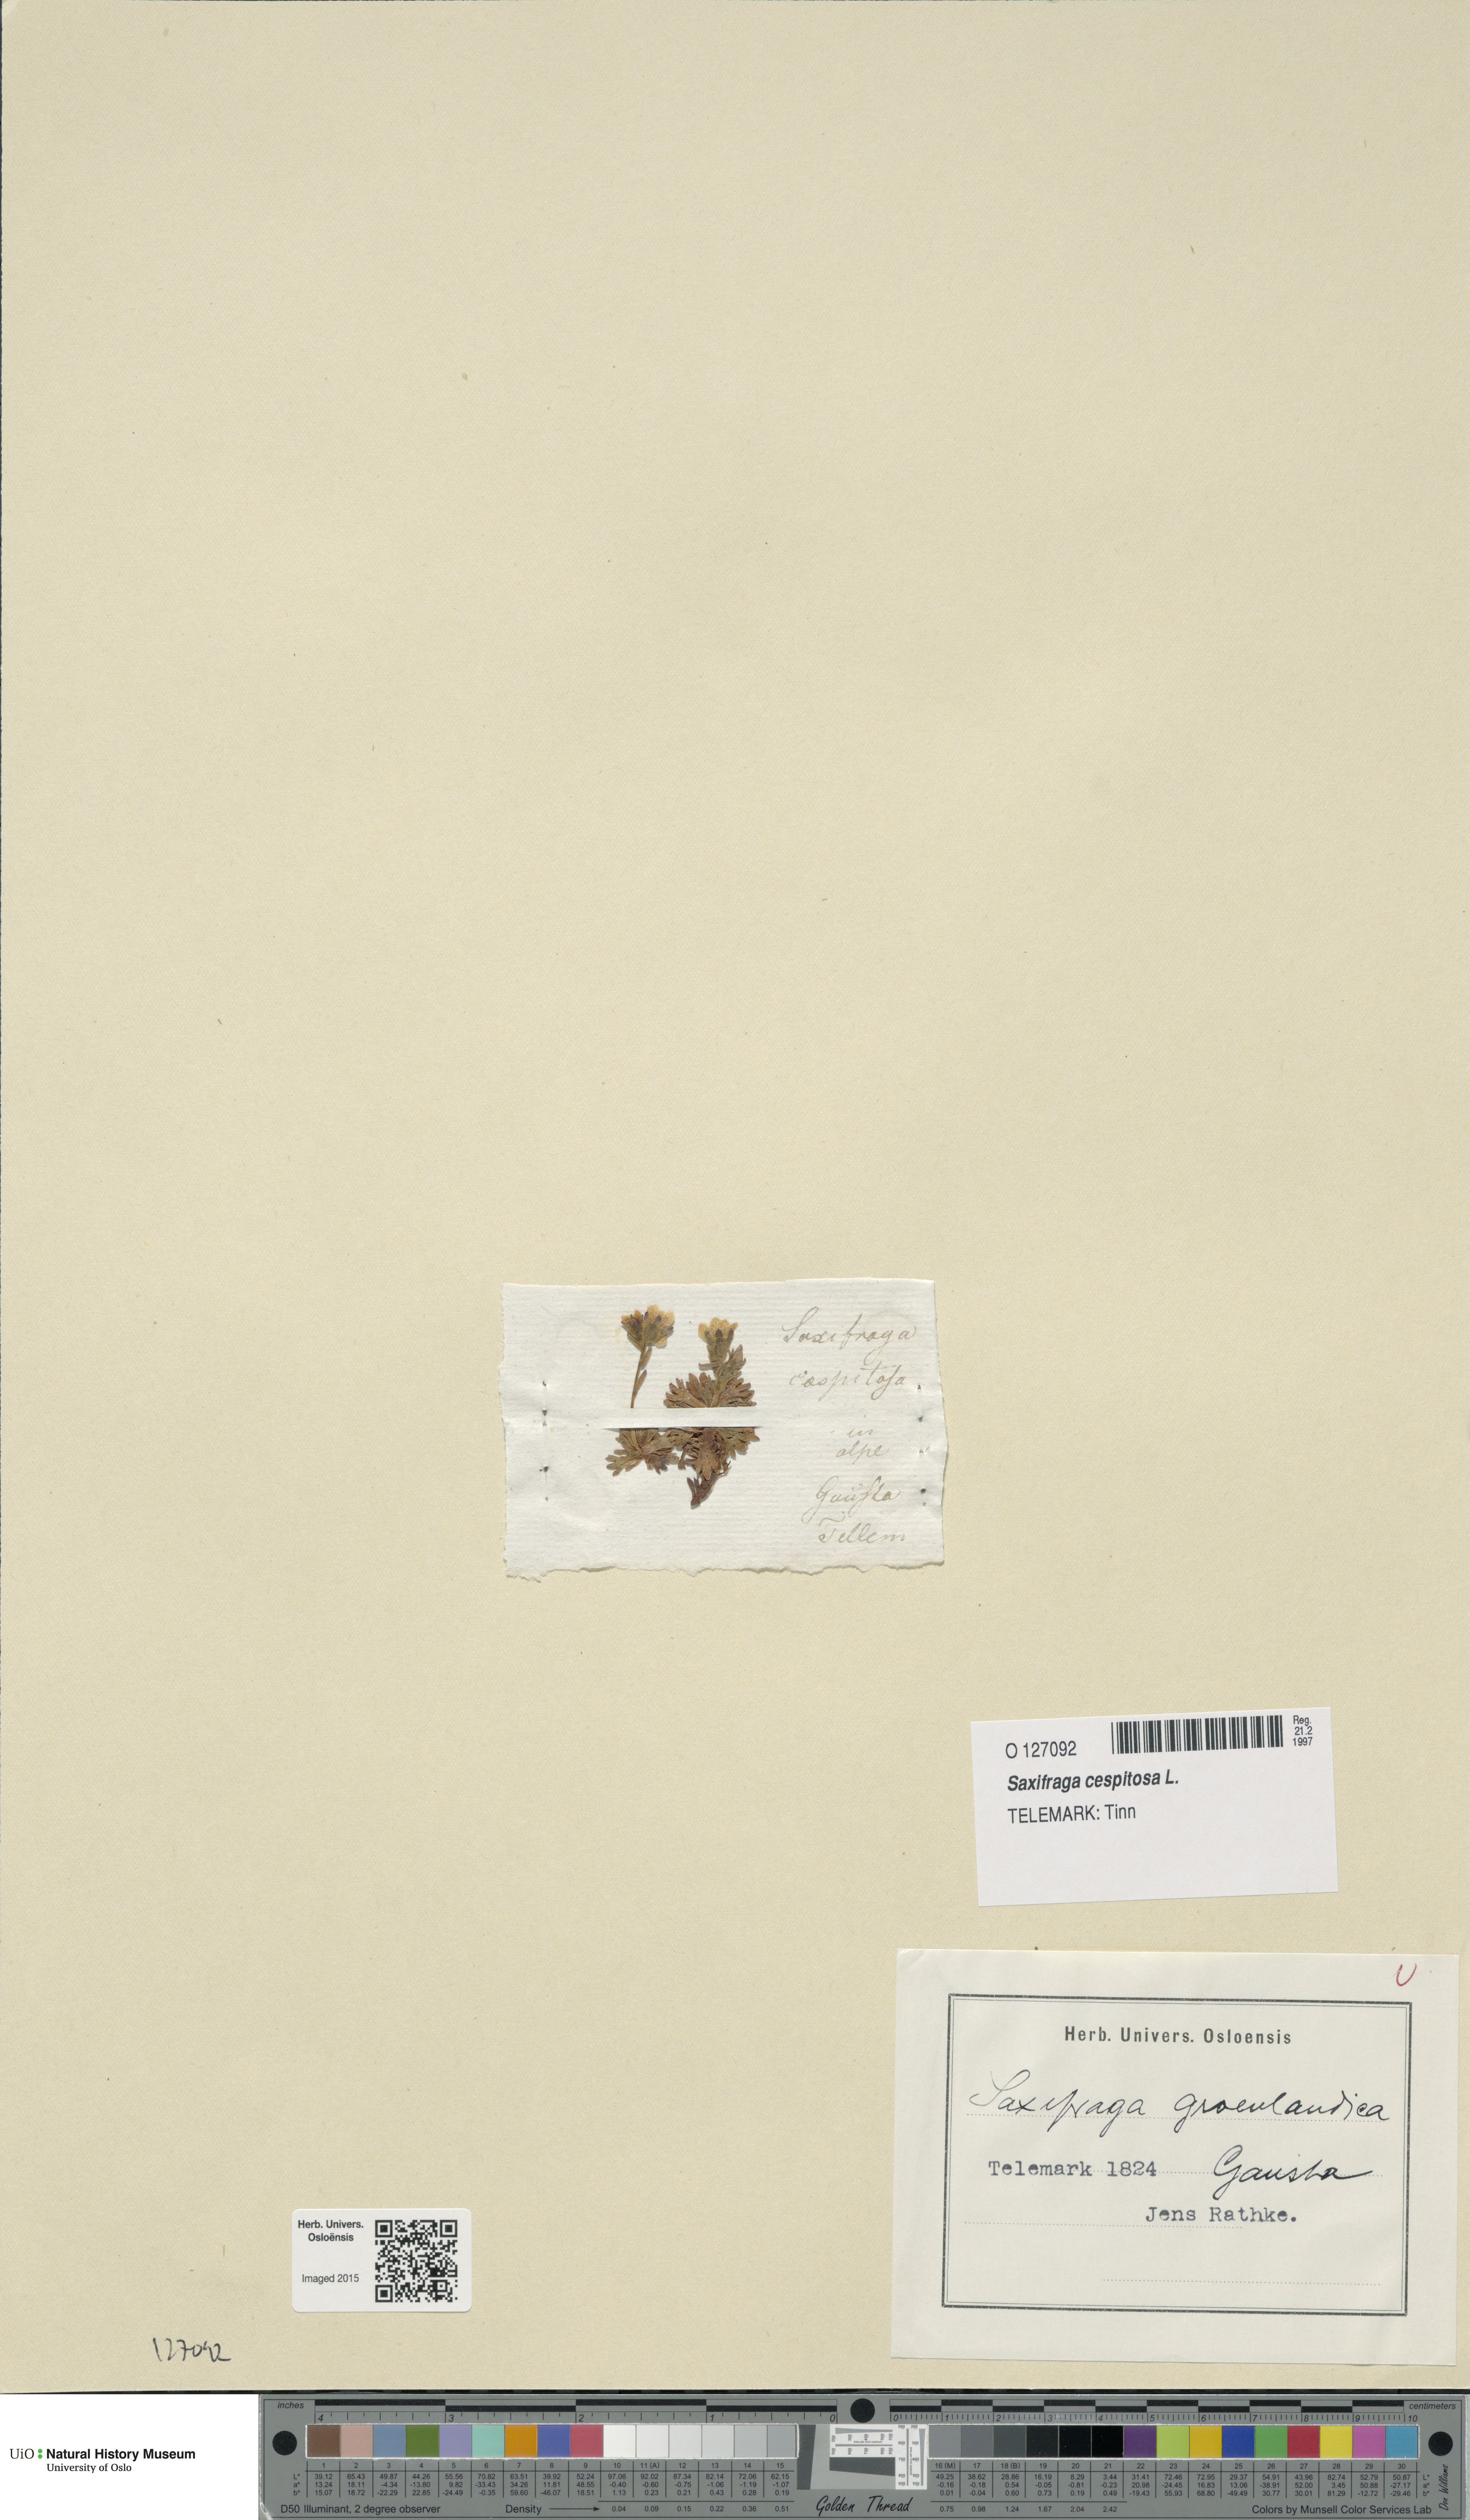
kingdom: Plantae
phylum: Tracheophyta
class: Magnoliopsida
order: Saxifragales
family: Saxifragaceae
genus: Saxifraga
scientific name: Saxifraga cespitosa
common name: Tufted saxifrage
